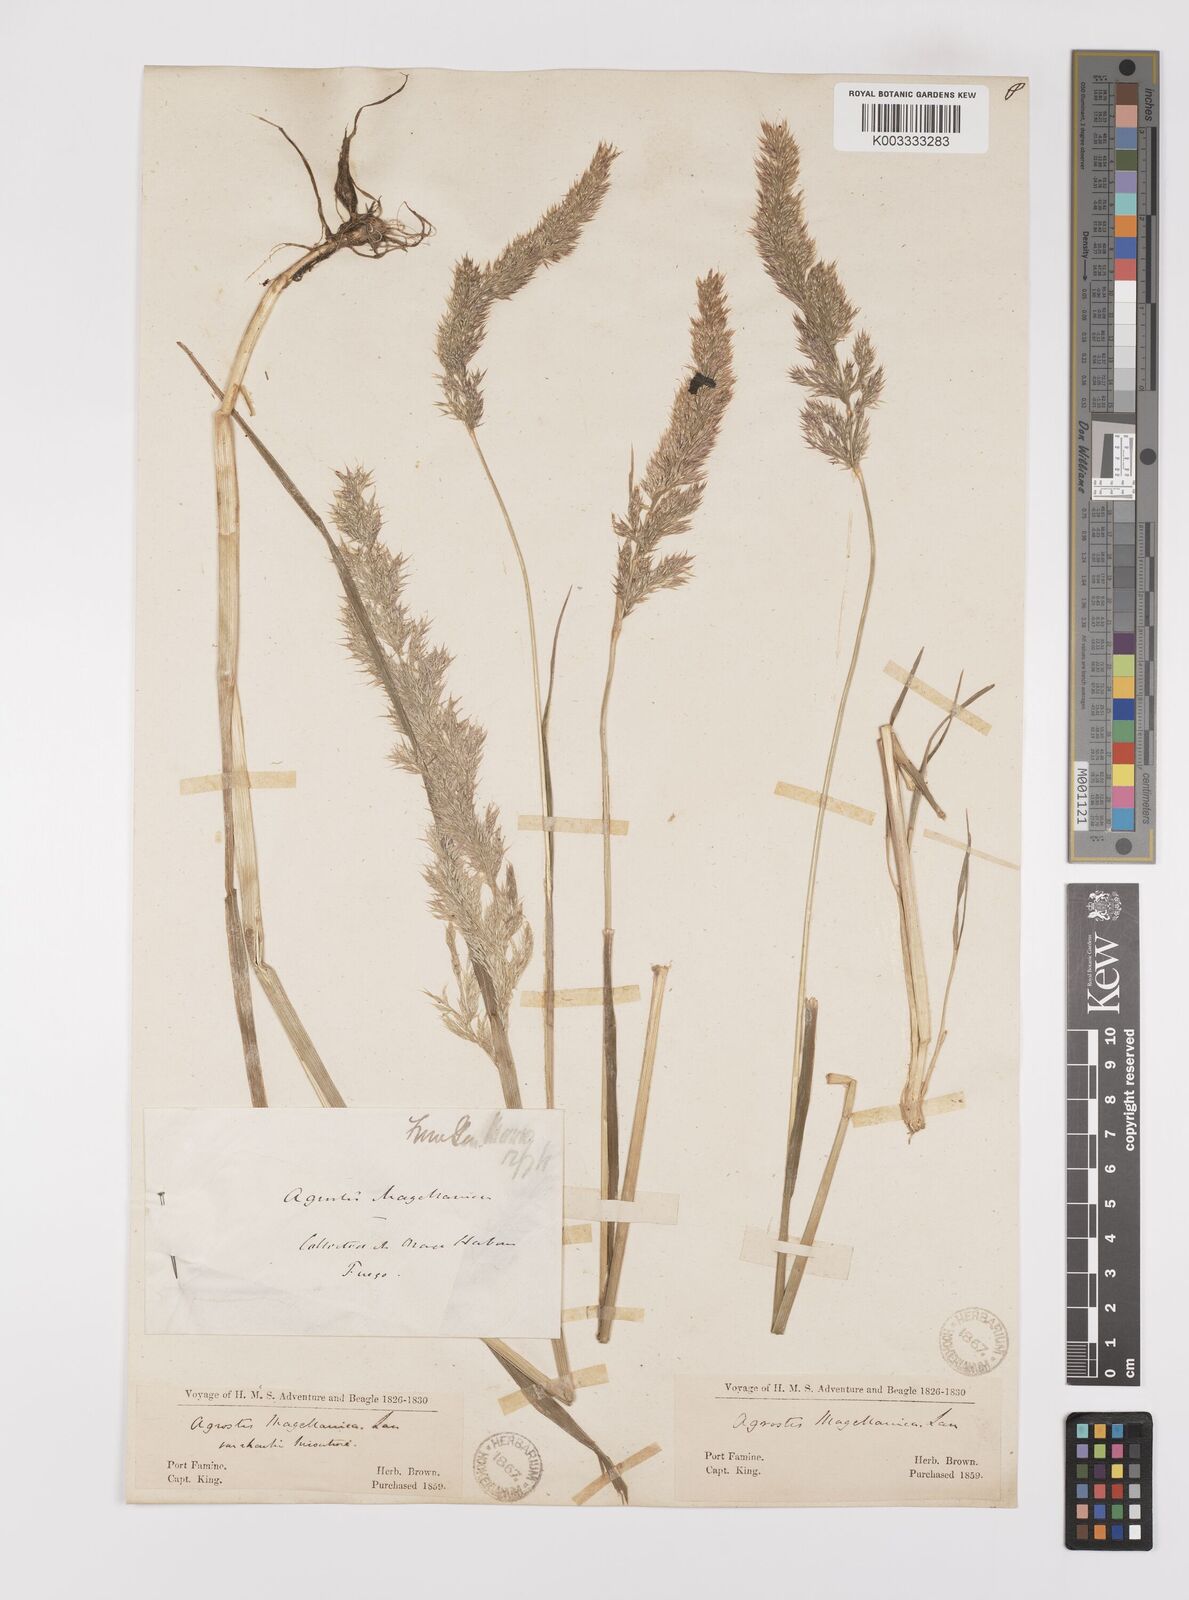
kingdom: Plantae
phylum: Tracheophyta
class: Liliopsida
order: Poales
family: Poaceae
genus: Polypogon
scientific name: Polypogon magellanicus
